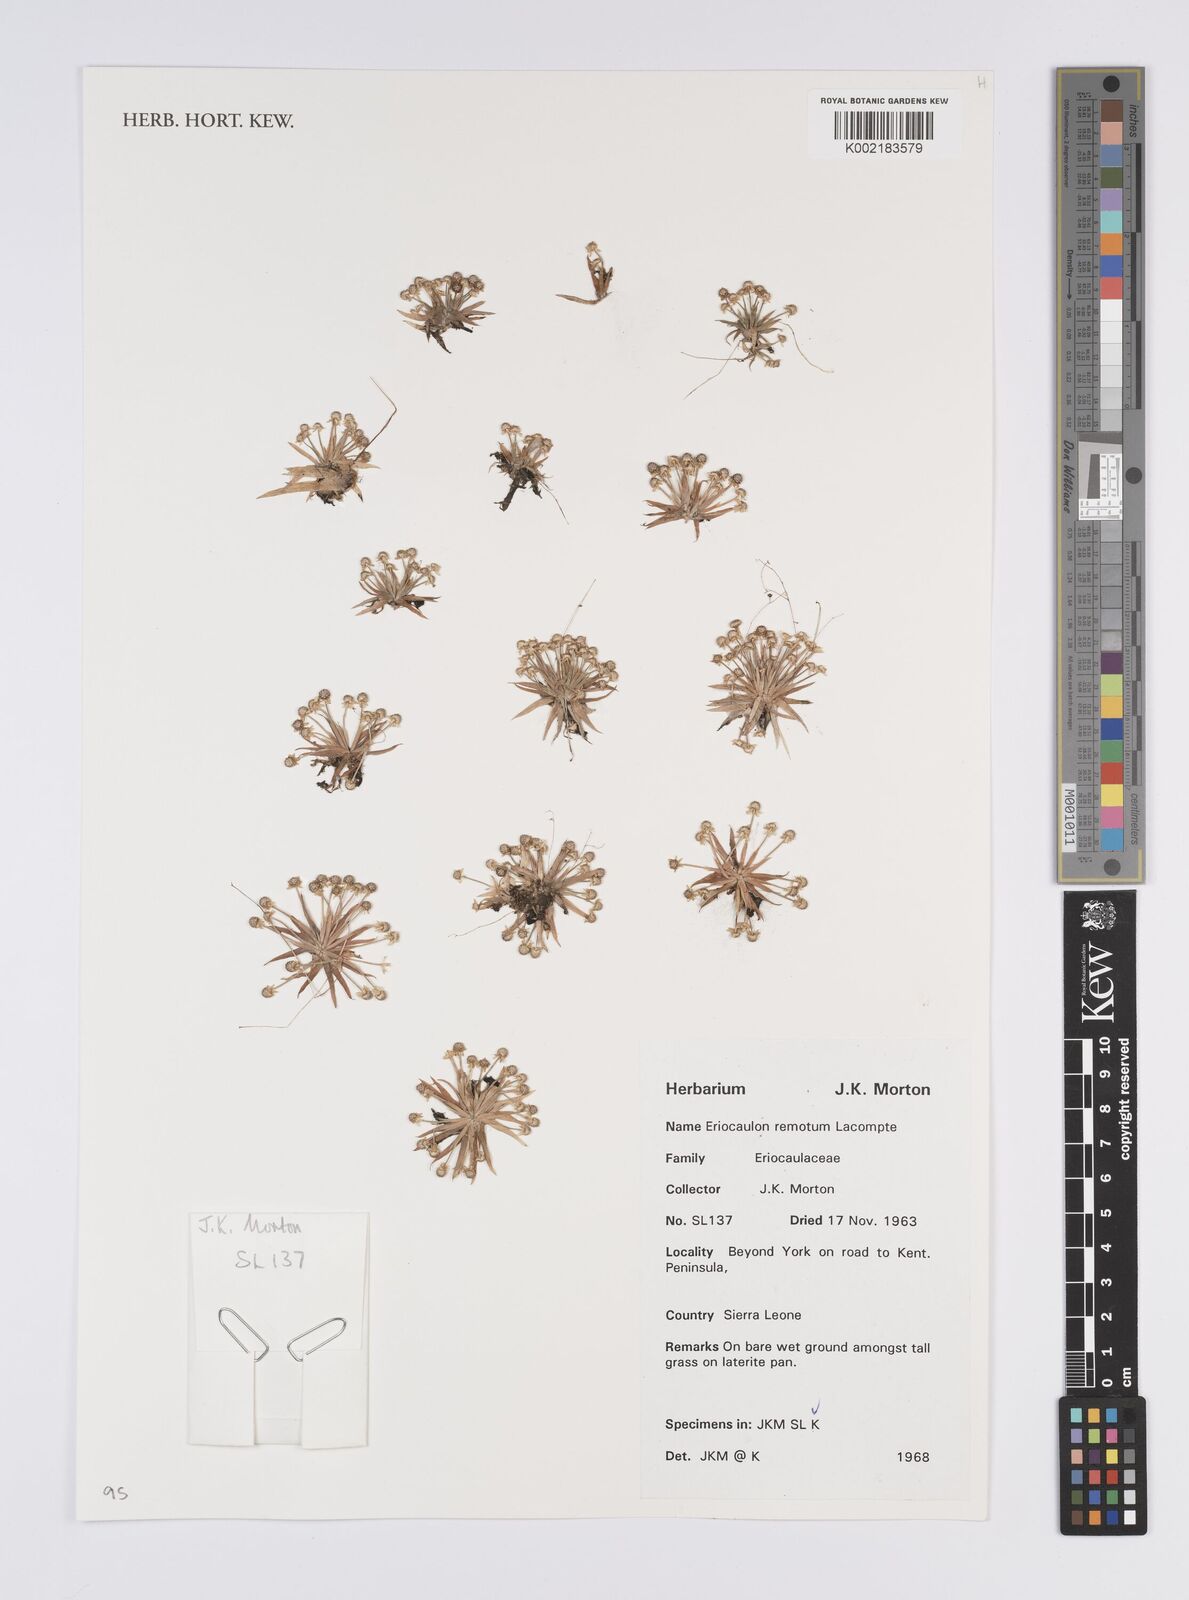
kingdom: Plantae
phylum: Tracheophyta
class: Liliopsida
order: Poales
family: Eriocaulaceae
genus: Eriocaulon
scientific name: Eriocaulon remotum
